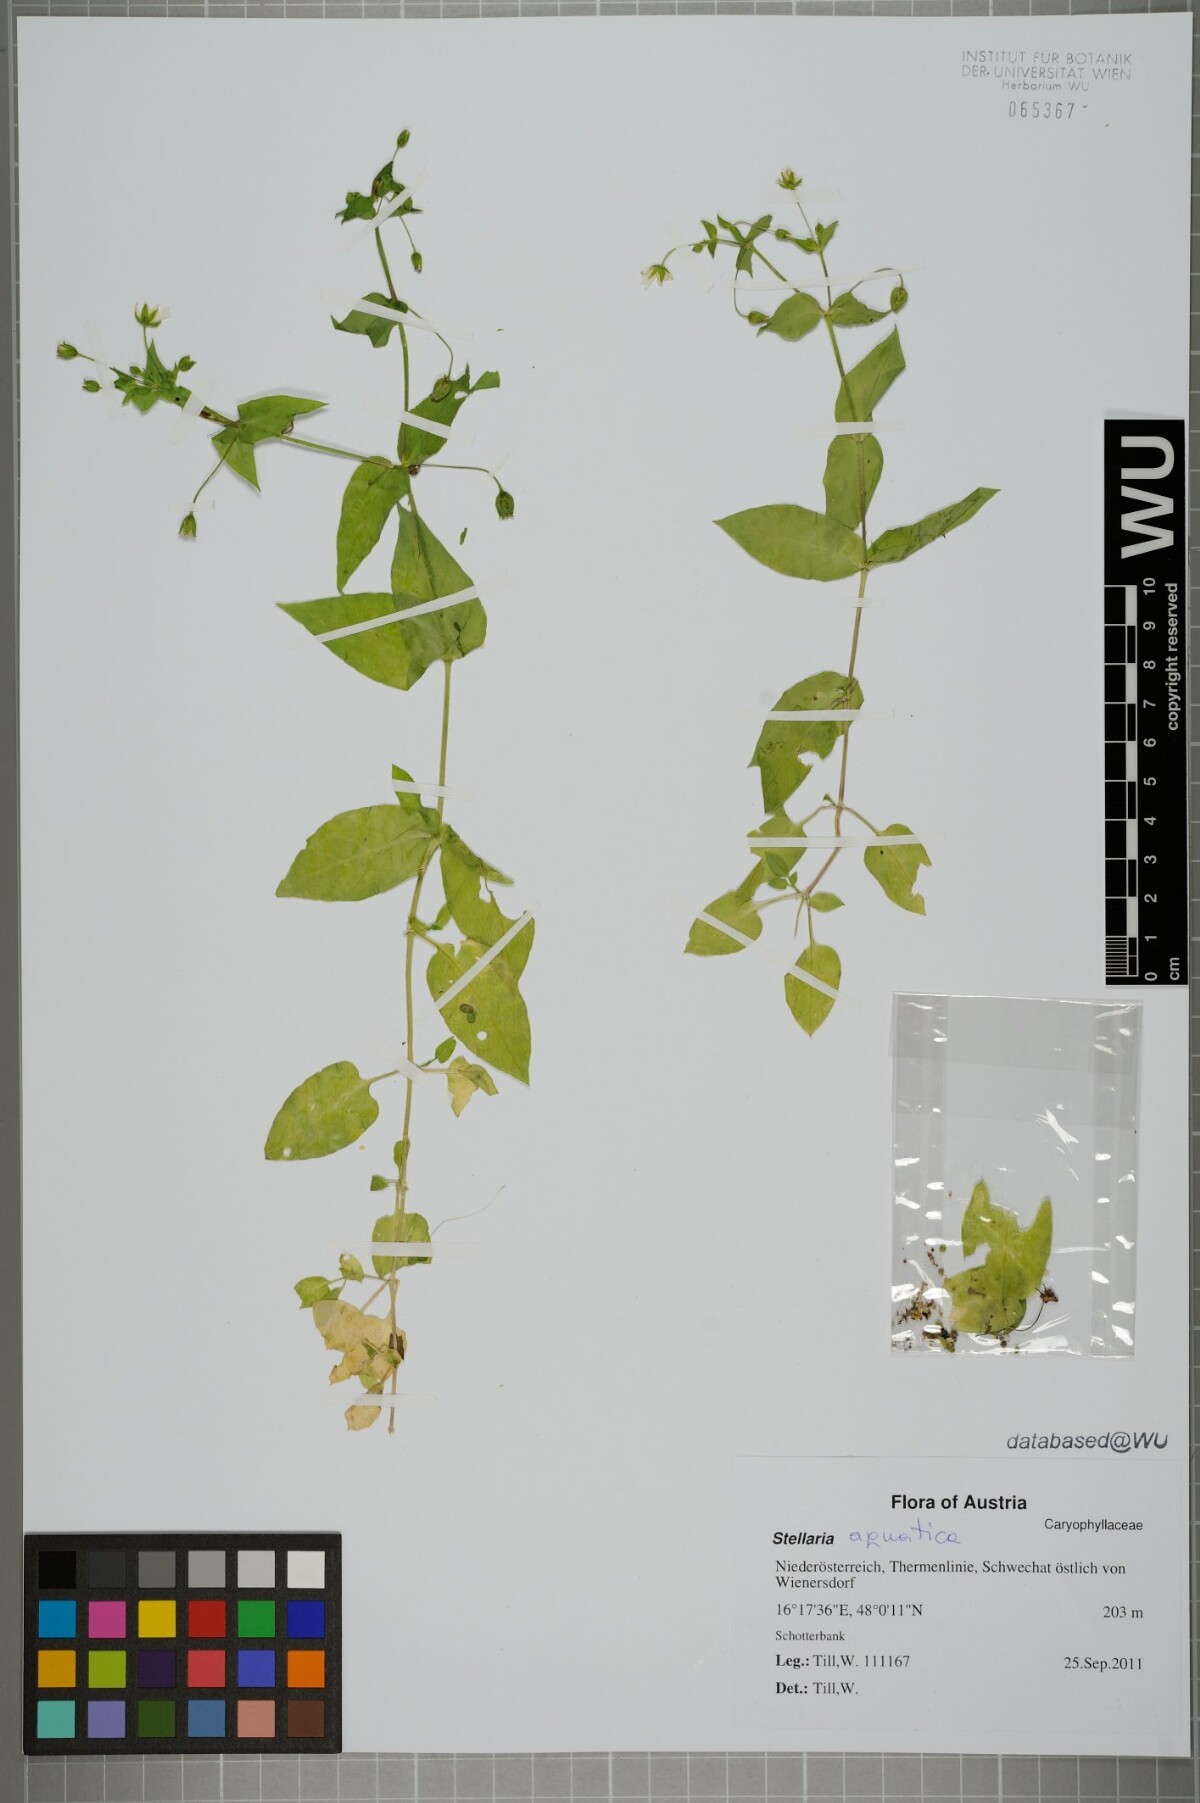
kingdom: Plantae
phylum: Tracheophyta
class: Magnoliopsida
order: Caryophyllales
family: Caryophyllaceae
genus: Stellaria
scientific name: Stellaria aquatica
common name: Water chickweed
